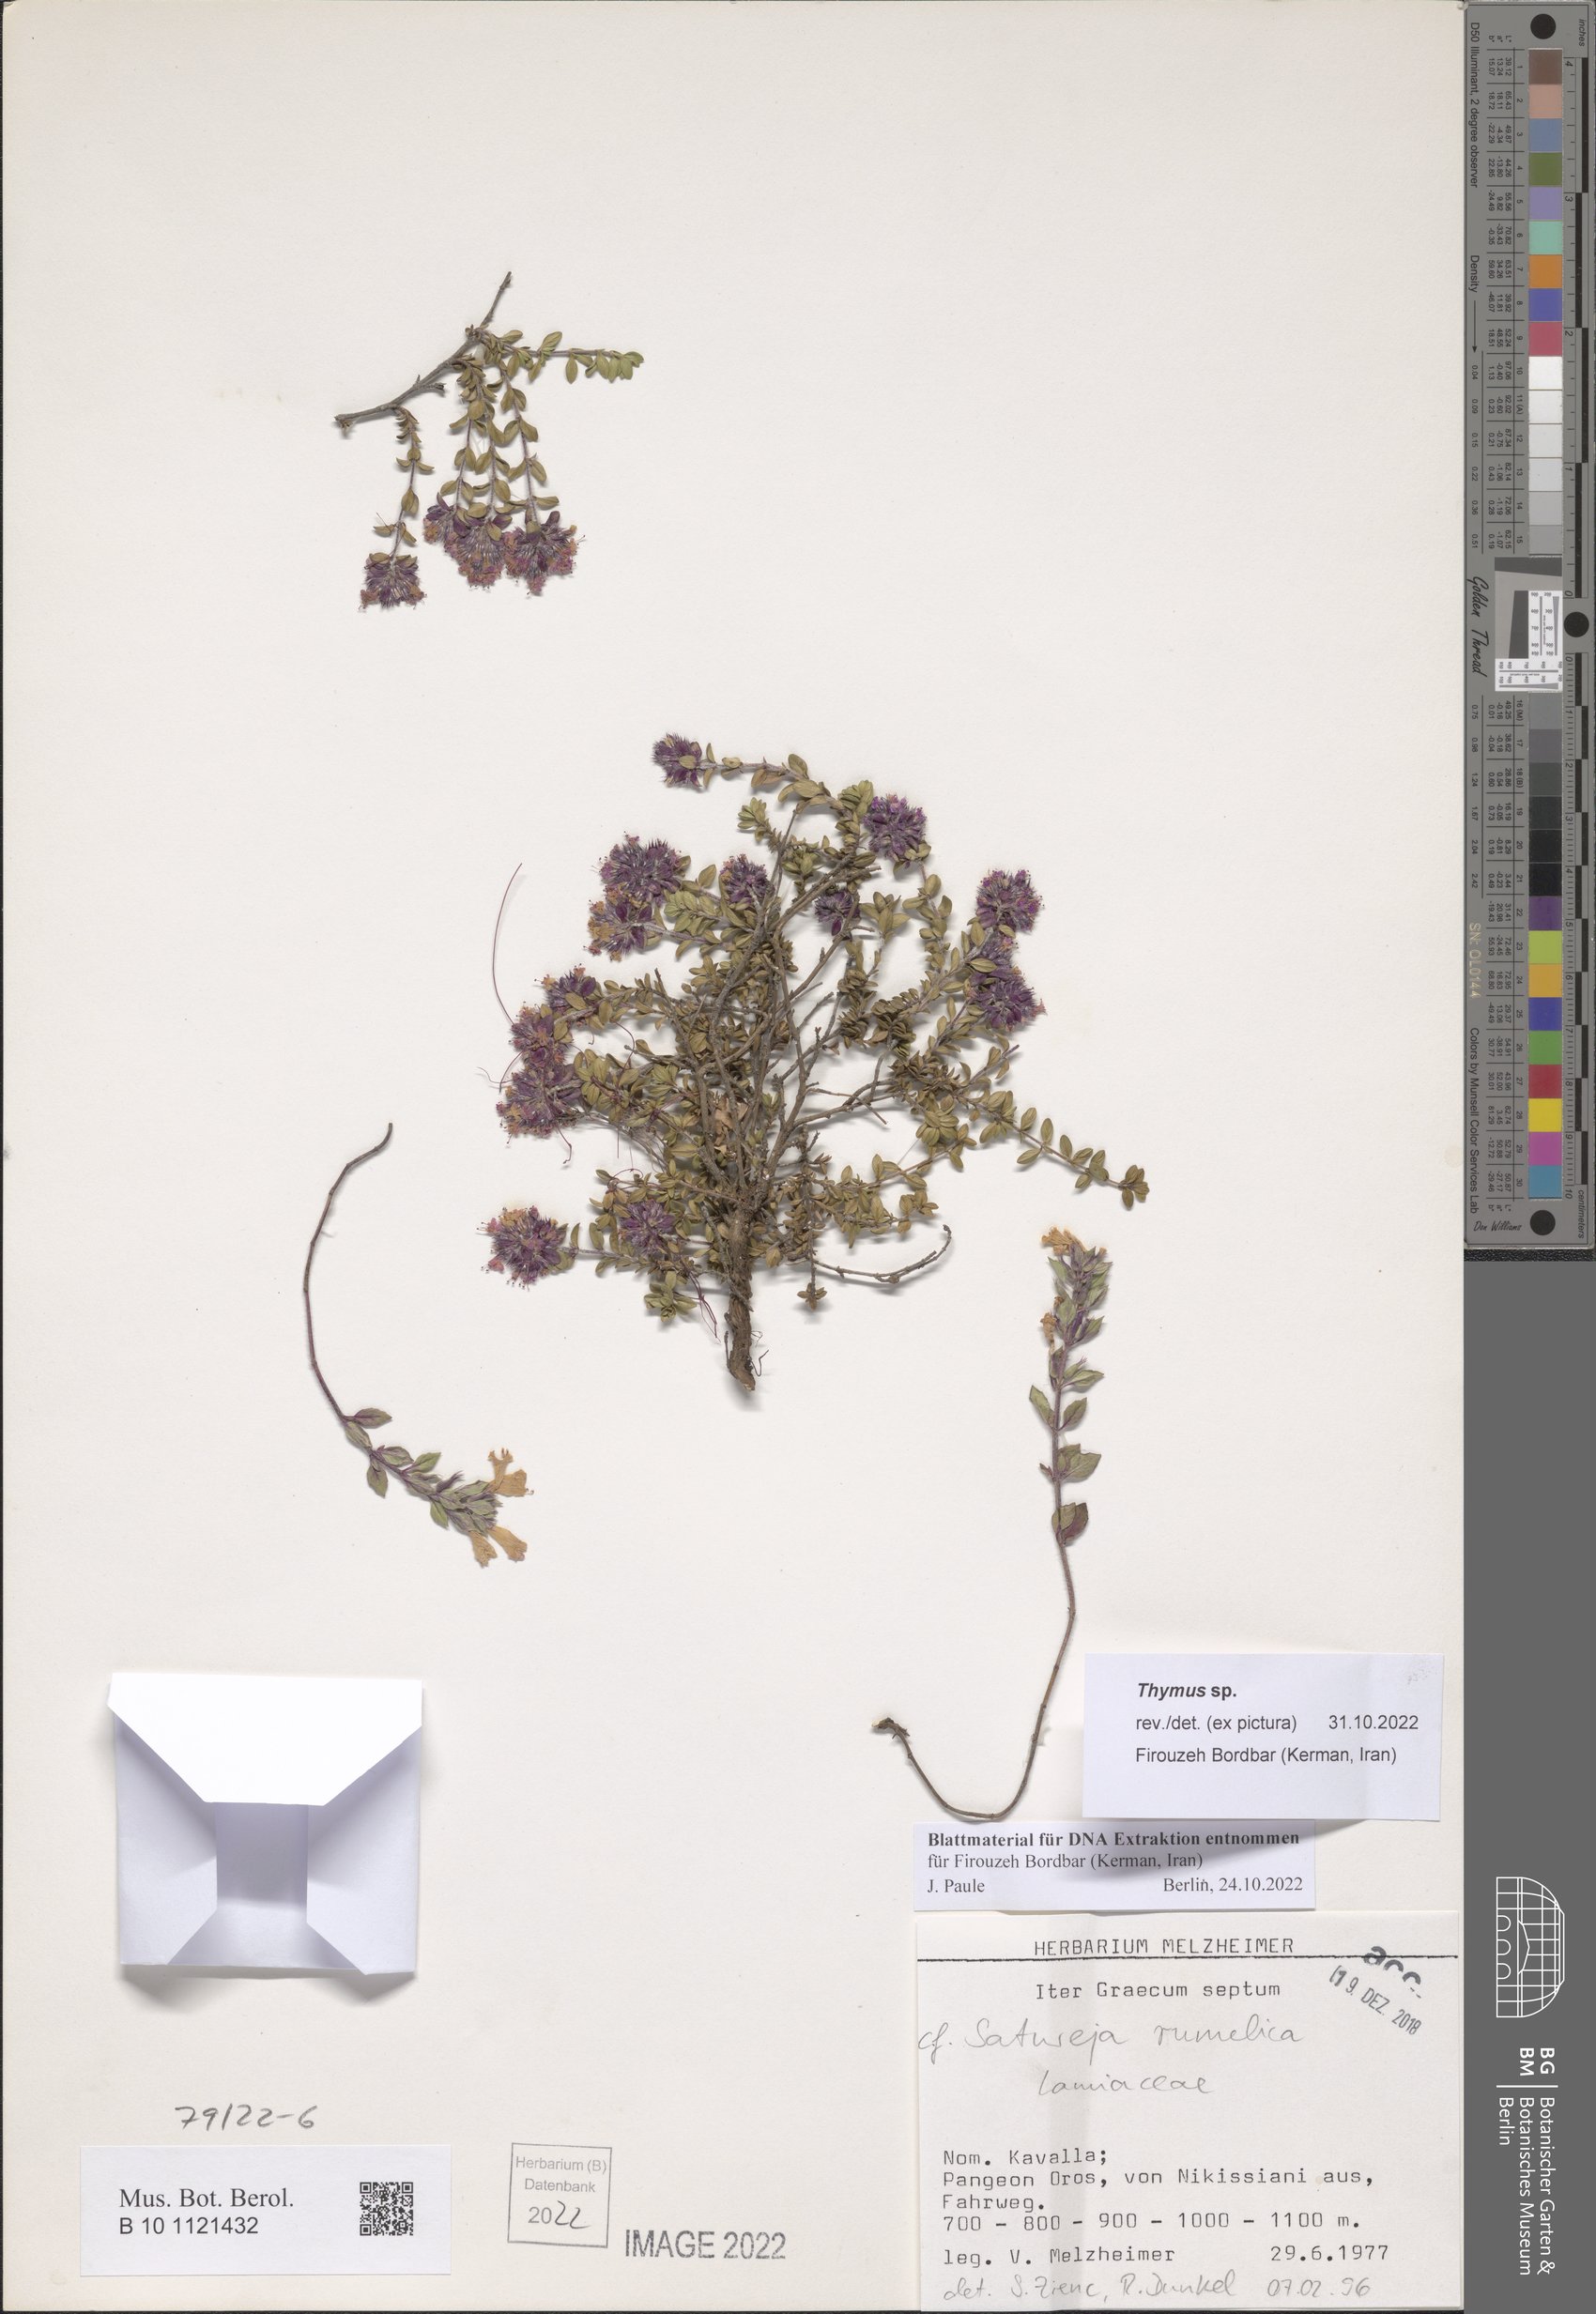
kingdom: Plantae
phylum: Tracheophyta
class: Magnoliopsida
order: Lamiales
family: Lamiaceae
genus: Thymus
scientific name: Thymus
